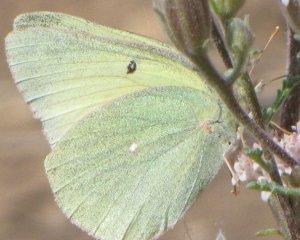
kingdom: Animalia
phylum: Arthropoda
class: Insecta
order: Lepidoptera
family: Pieridae
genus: Colias
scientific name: Colias alexandra
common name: Queen Alexandra's Sulphur
